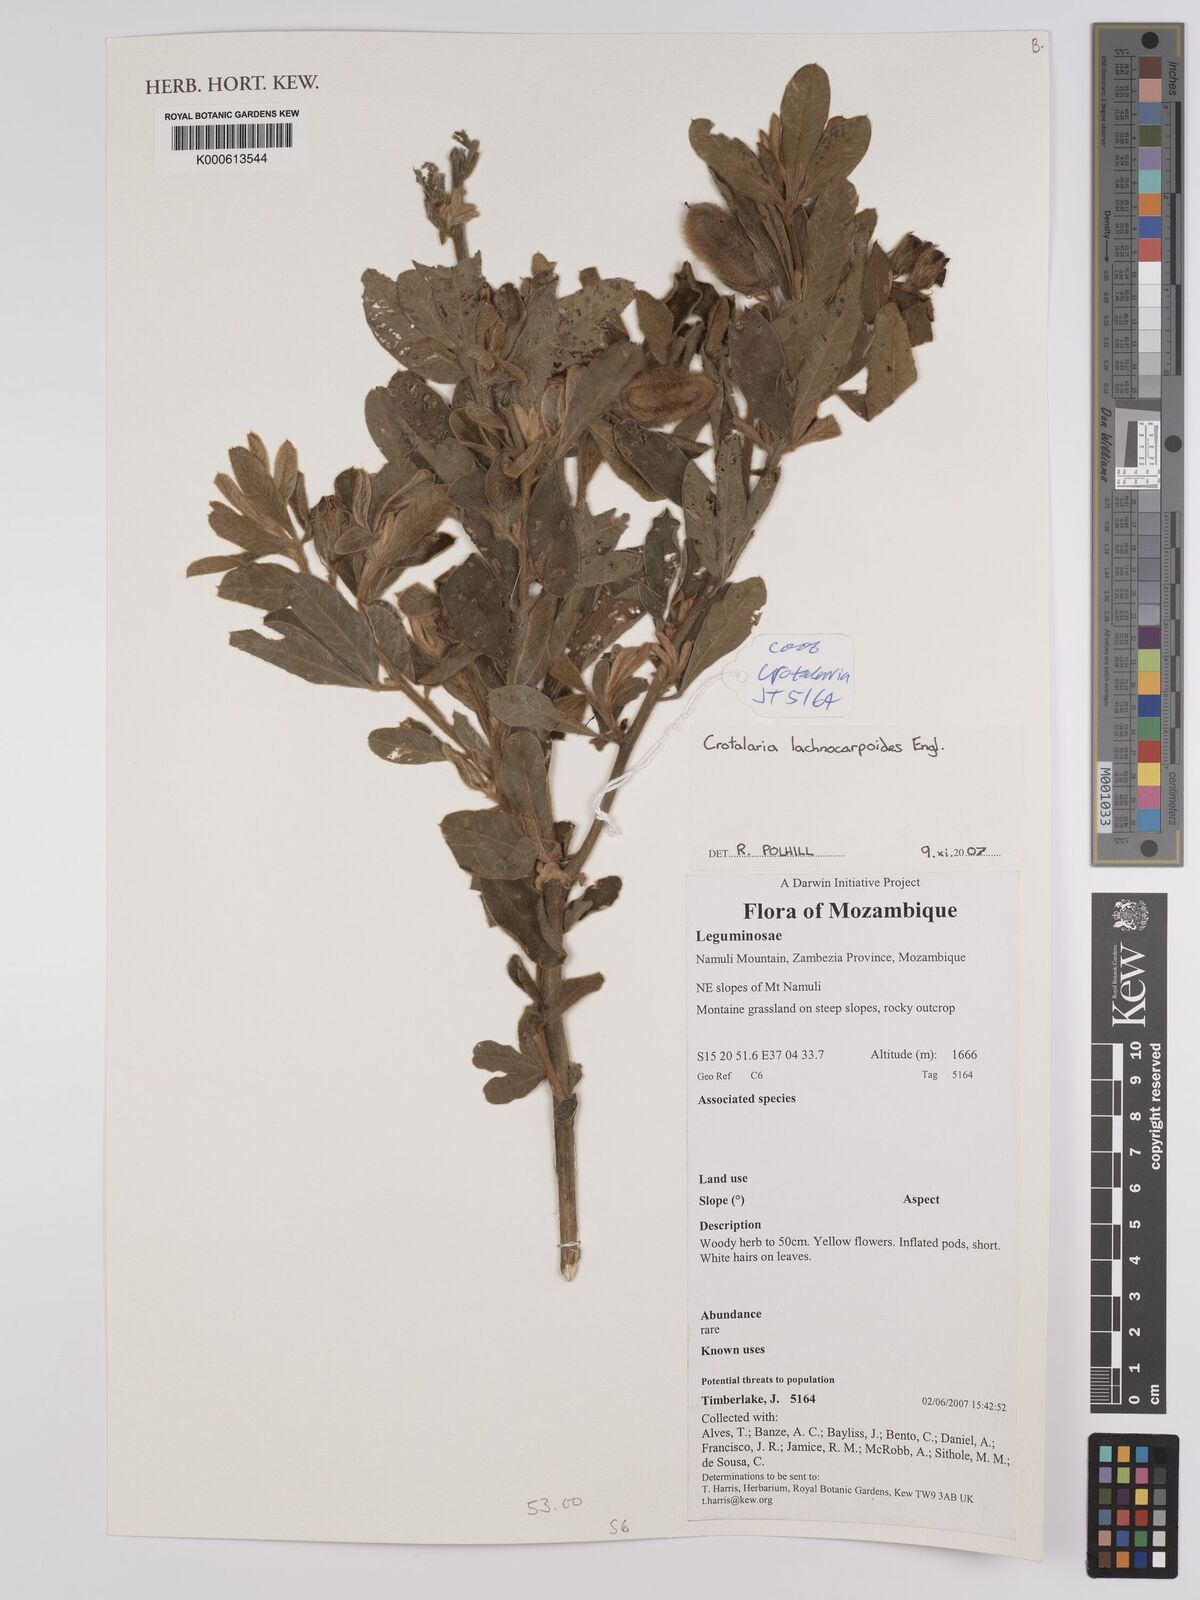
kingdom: Plantae
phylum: Tracheophyta
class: Magnoliopsida
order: Fabales
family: Fabaceae
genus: Crotalaria
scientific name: Crotalaria lachnocarpoides
